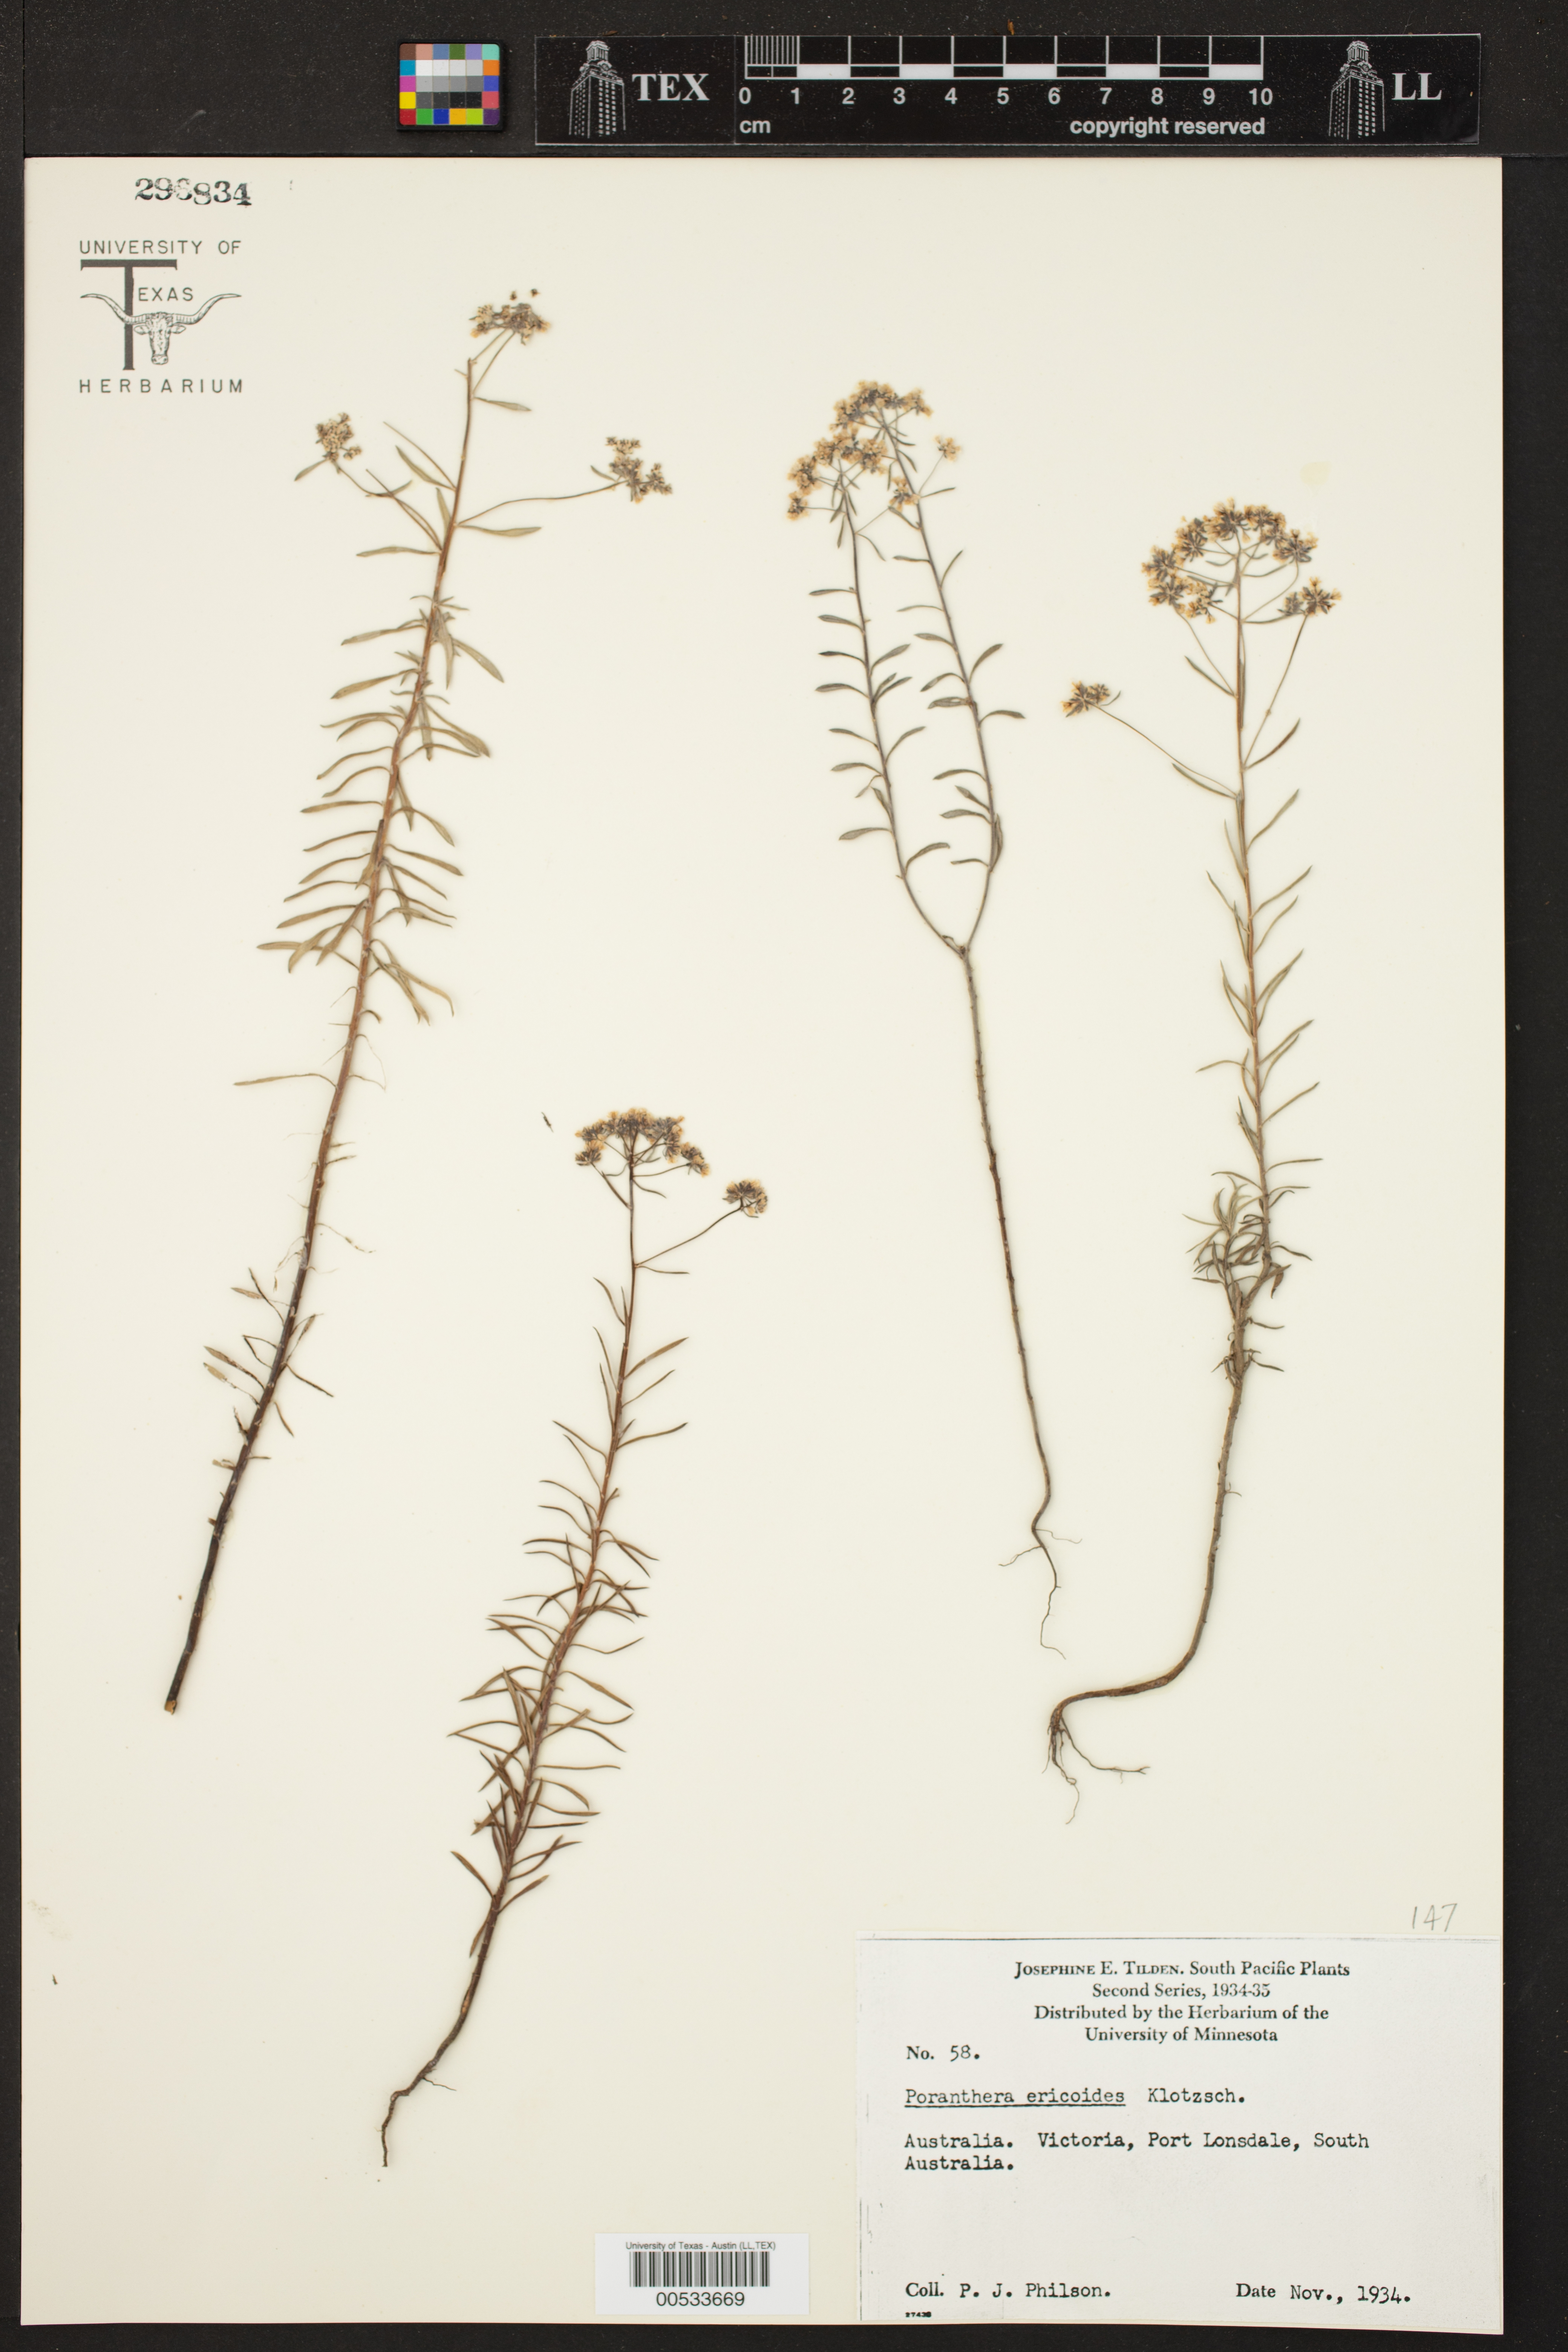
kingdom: Plantae
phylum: Tracheophyta
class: Magnoliopsida
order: Malpighiales
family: Phyllanthaceae
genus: Poranthera
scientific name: Poranthera ericoides
